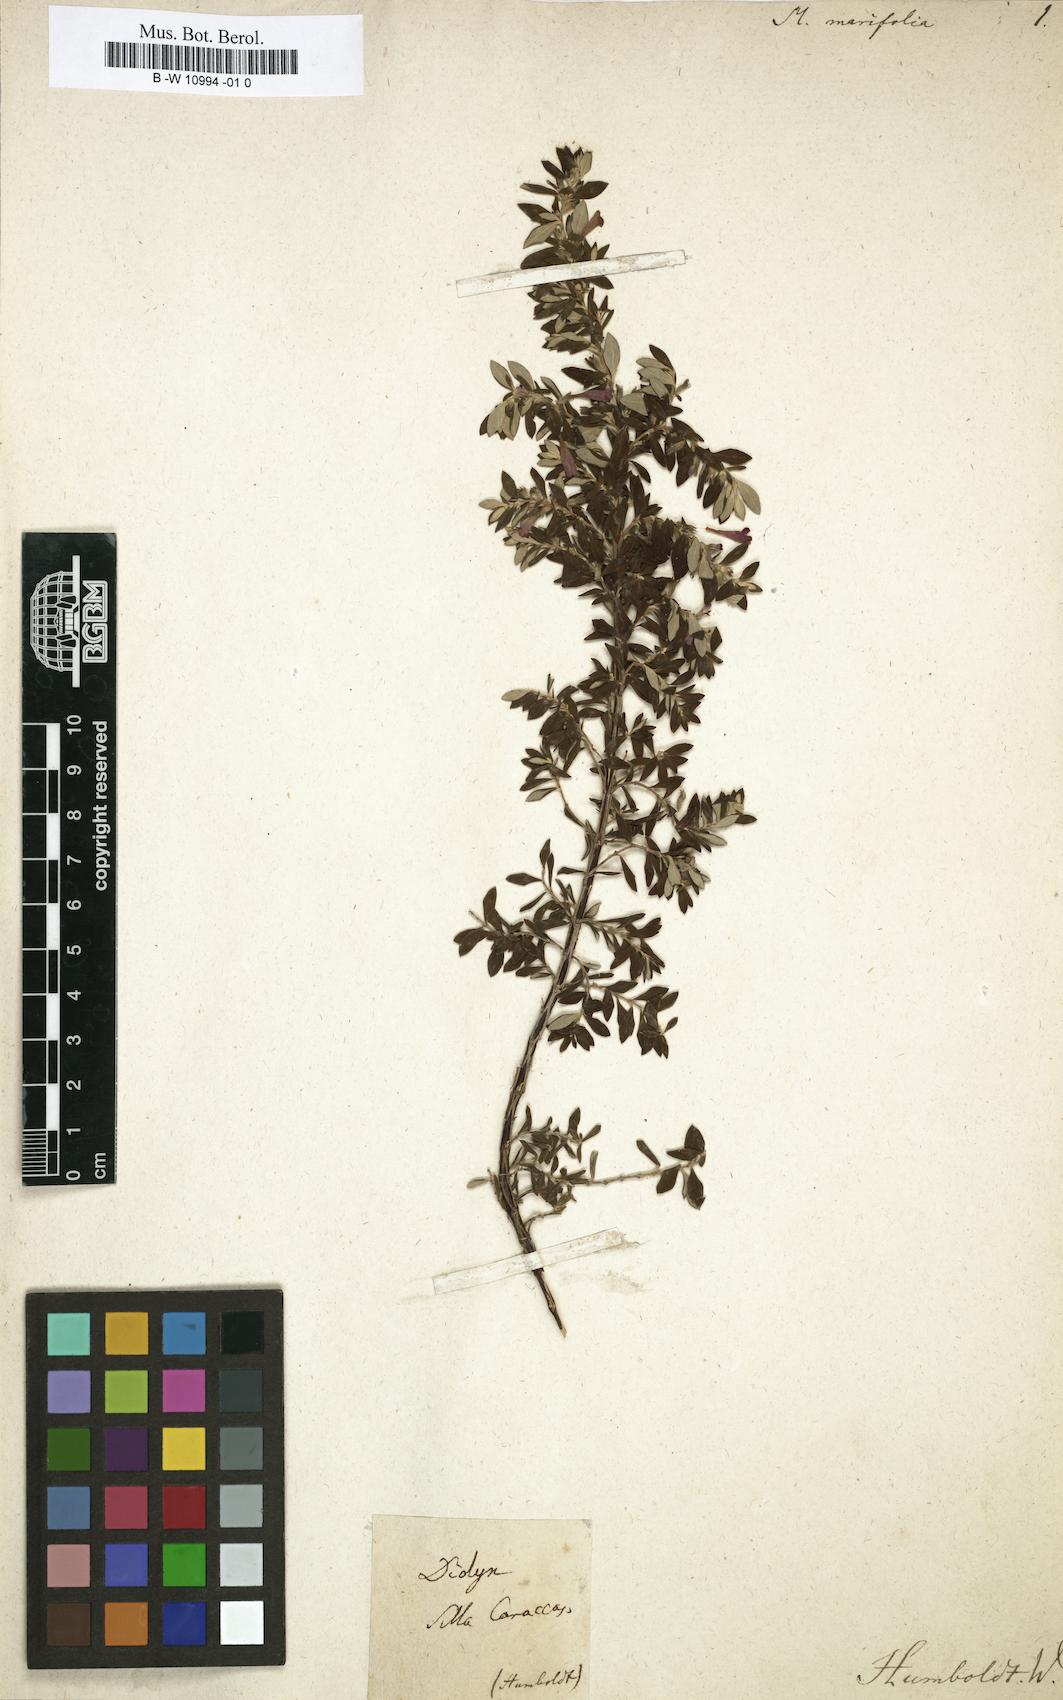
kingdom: Plantae
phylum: Tracheophyta
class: Magnoliopsida
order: Lamiales
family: Lamiaceae
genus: Melissa
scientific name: Melissa marifolia
